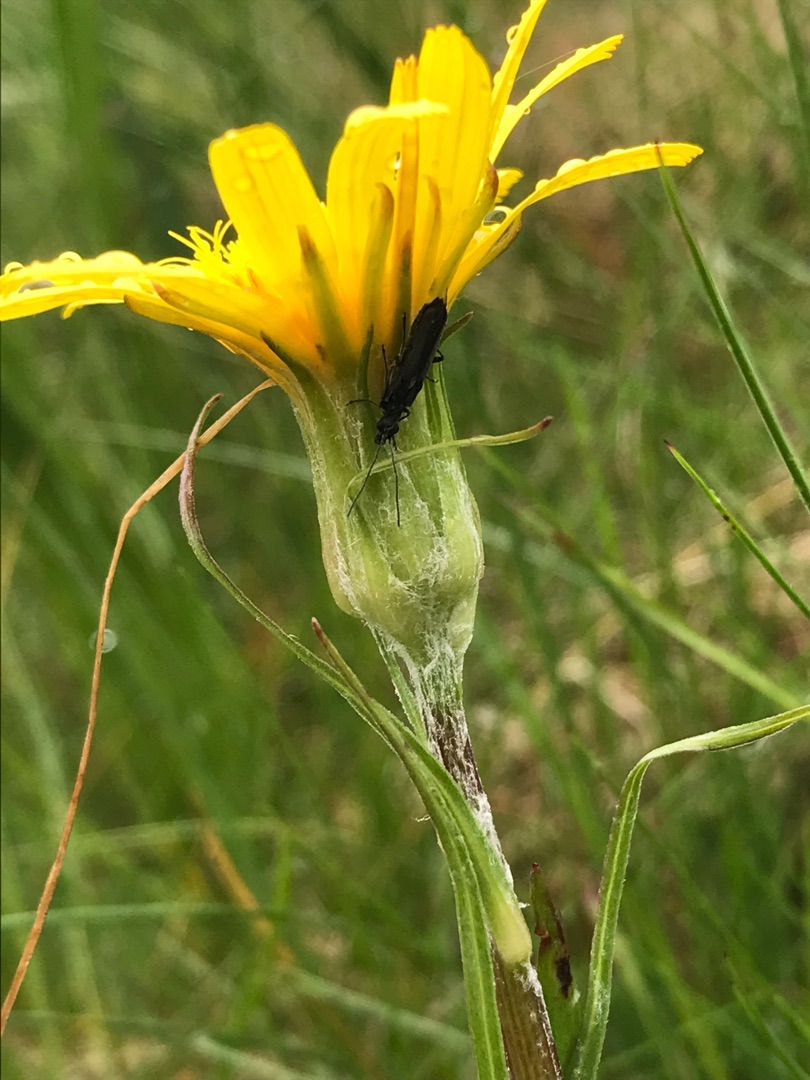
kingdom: Plantae
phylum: Tracheophyta
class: Magnoliopsida
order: Asterales
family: Asteraceae
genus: Scorzonera
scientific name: Scorzonera humilis
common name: Lav skorsoner
